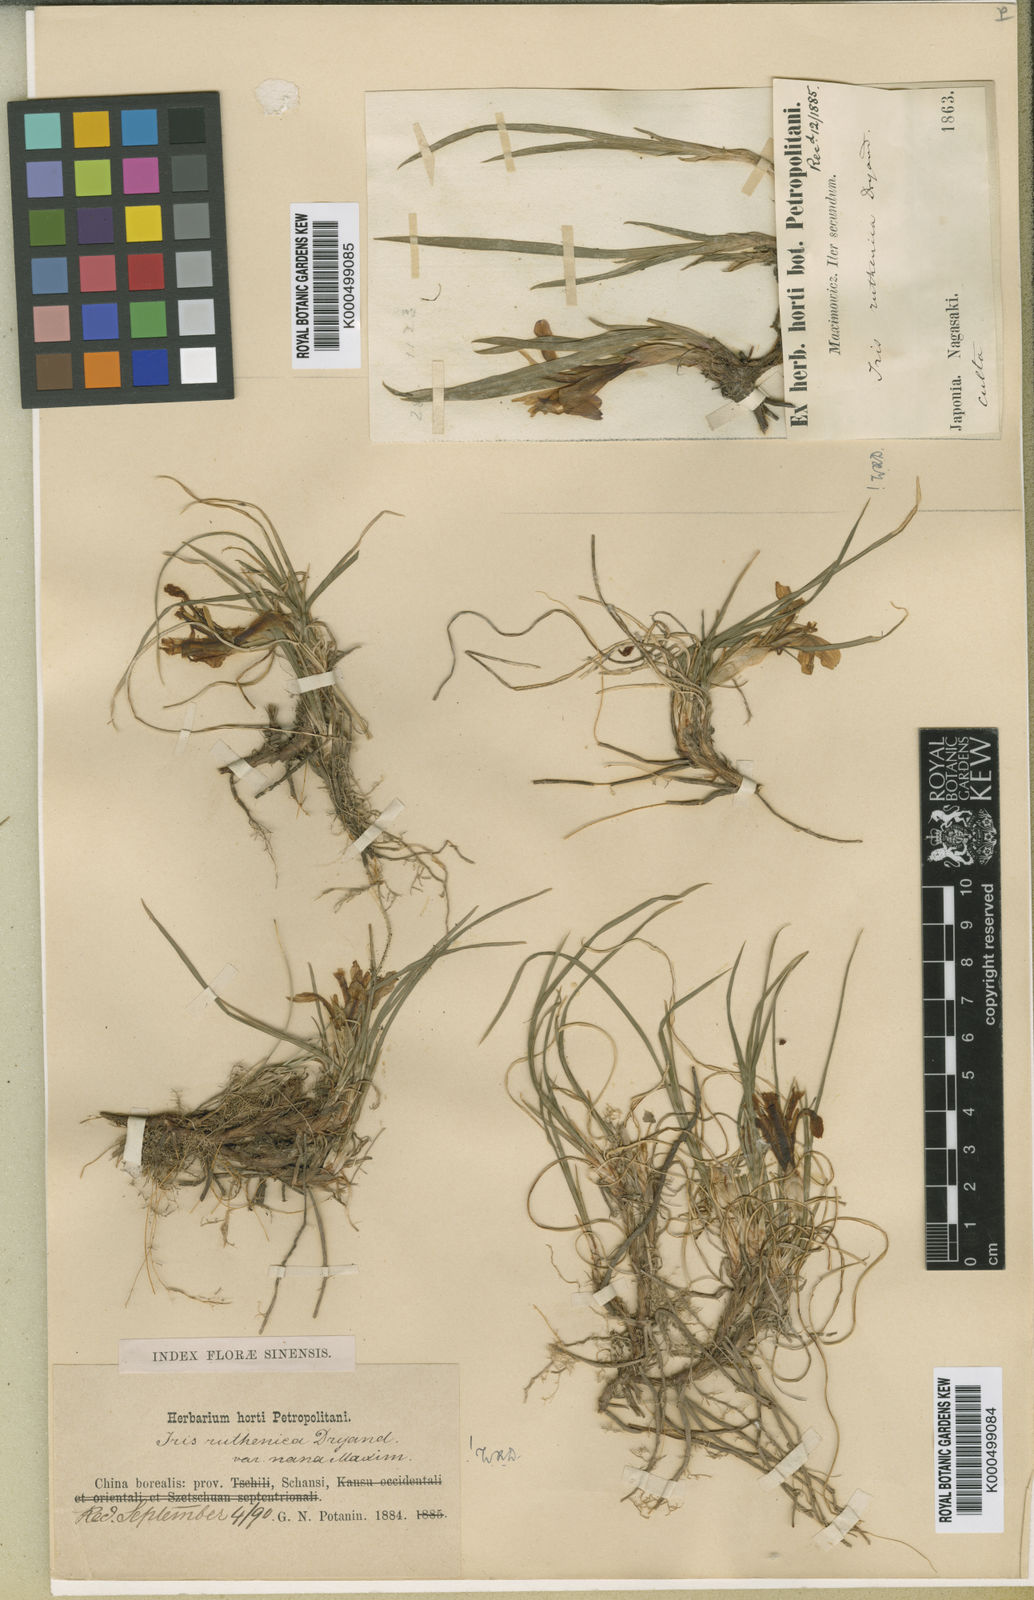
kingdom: Plantae
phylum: Tracheophyta
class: Liliopsida
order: Asparagales
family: Iridaceae
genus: Iris
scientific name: Iris
